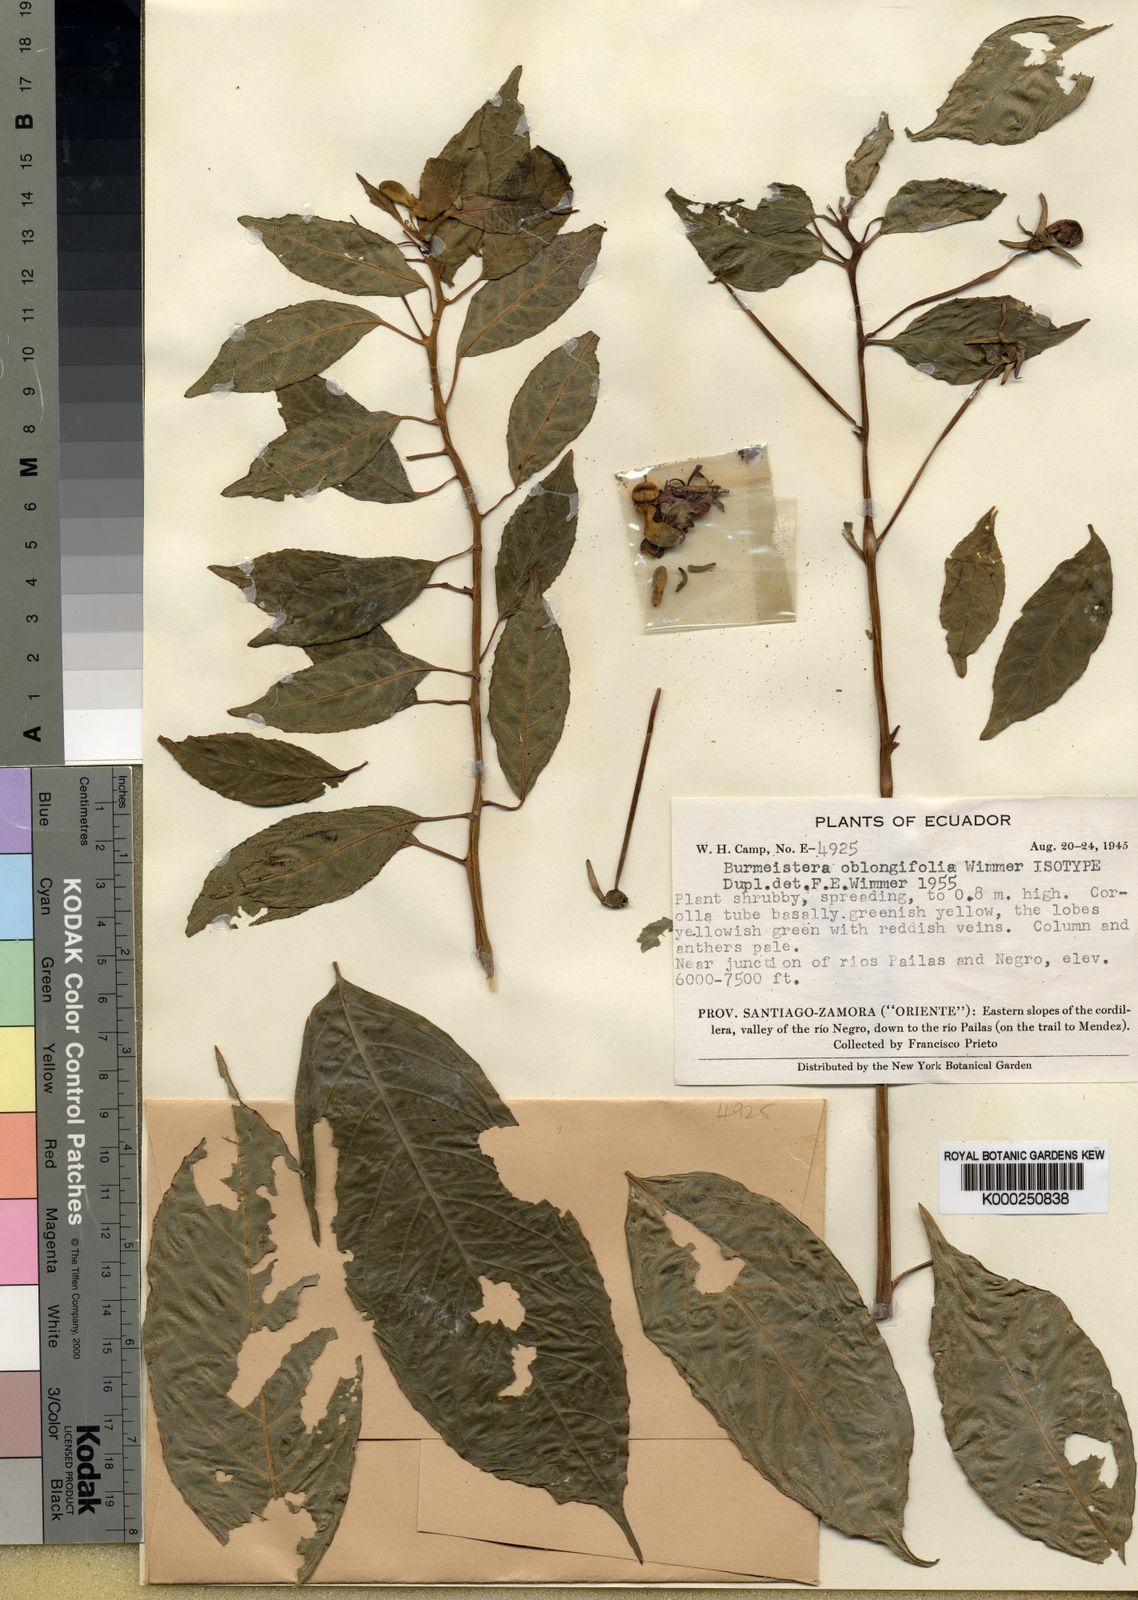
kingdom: Plantae
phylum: Tracheophyta
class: Magnoliopsida
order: Asterales
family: Campanulaceae
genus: Burmeistera
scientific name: Burmeistera oblongifolia
